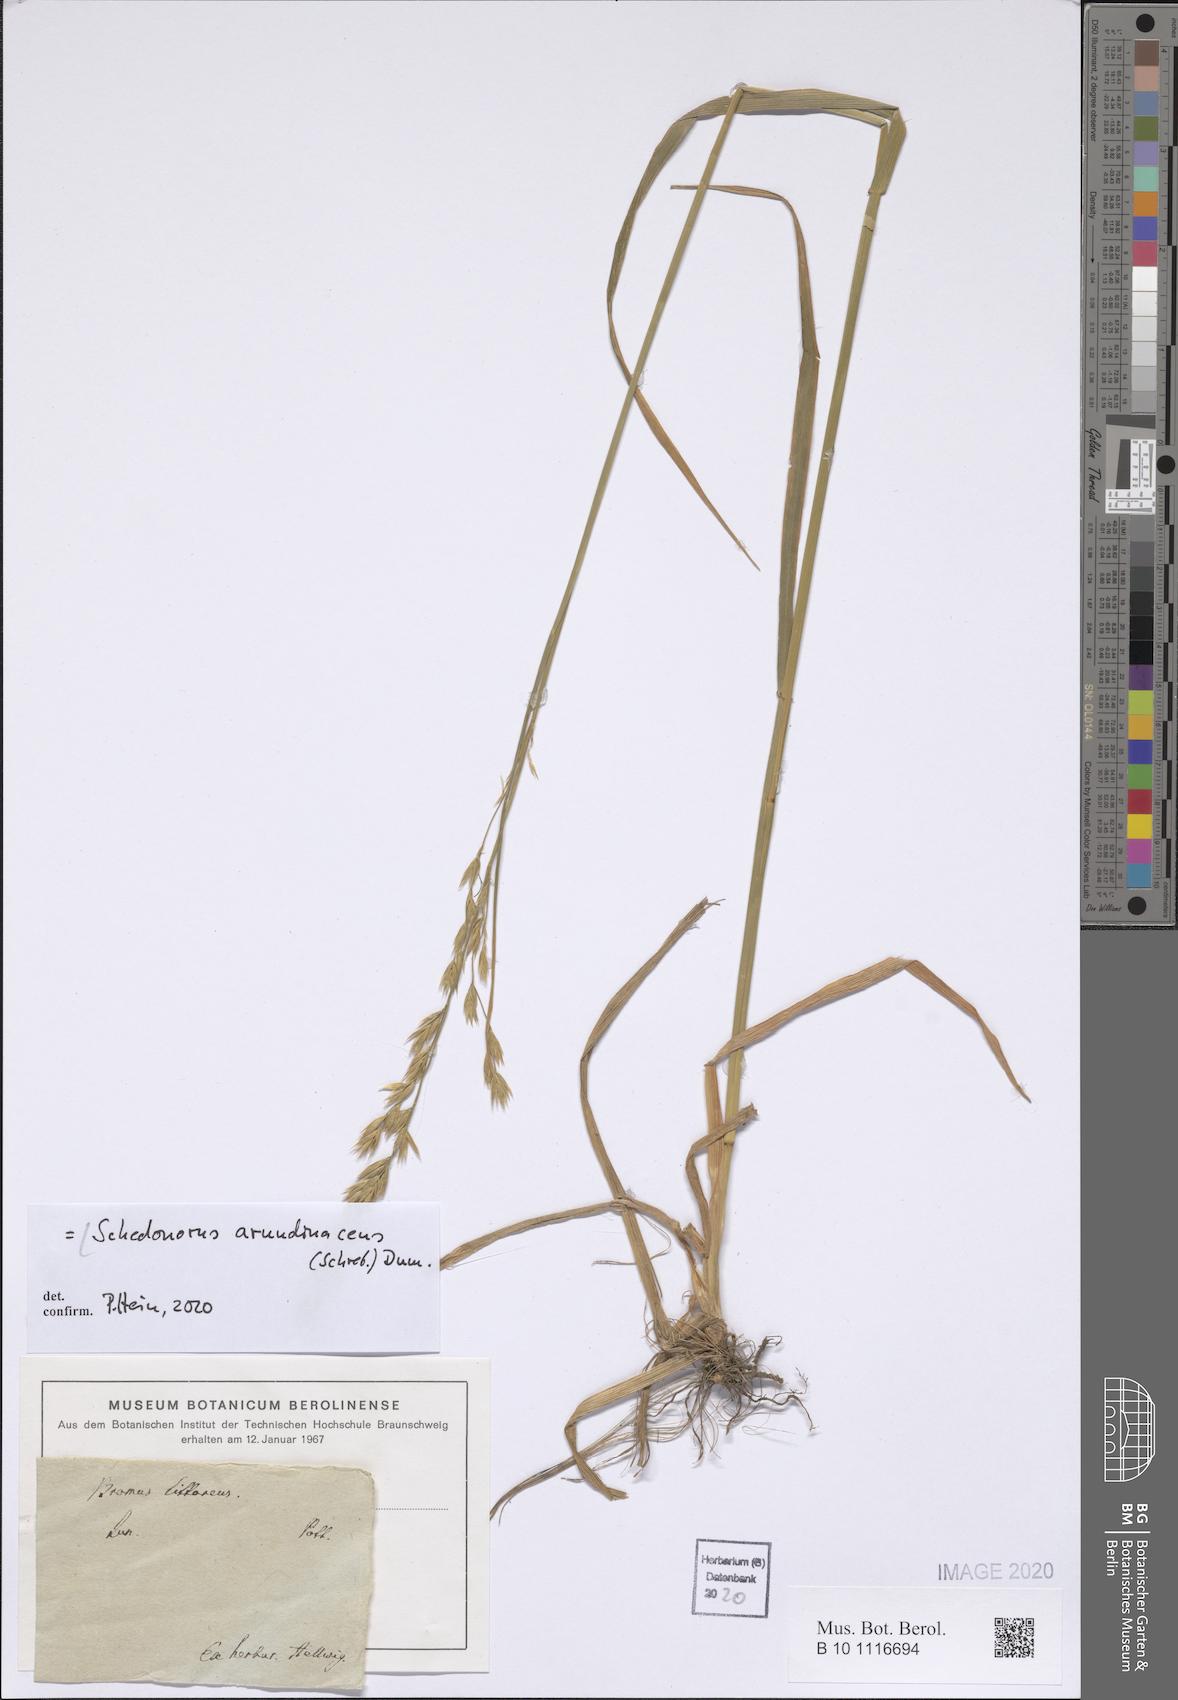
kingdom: Plantae
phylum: Tracheophyta
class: Liliopsida
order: Poales
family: Poaceae
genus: Lolium
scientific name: Lolium arundinaceum
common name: Reed fescue
